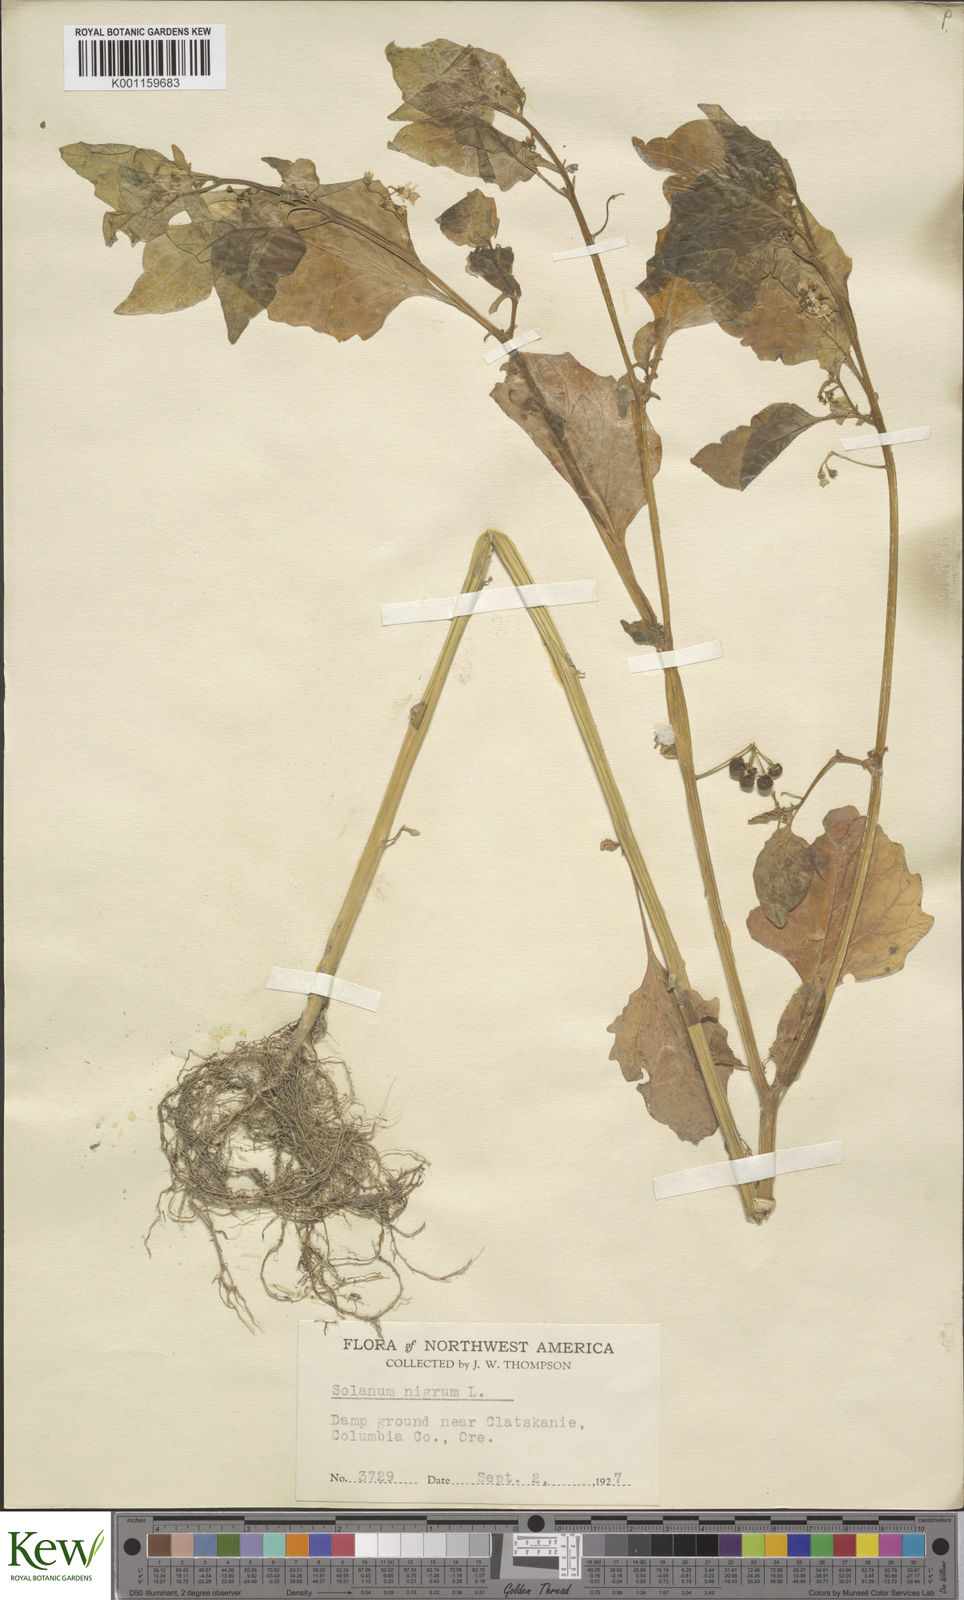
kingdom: Plantae
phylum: Tracheophyta
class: Magnoliopsida
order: Solanales
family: Solanaceae
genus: Solanum
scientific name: Solanum americanum
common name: American black nightshade
